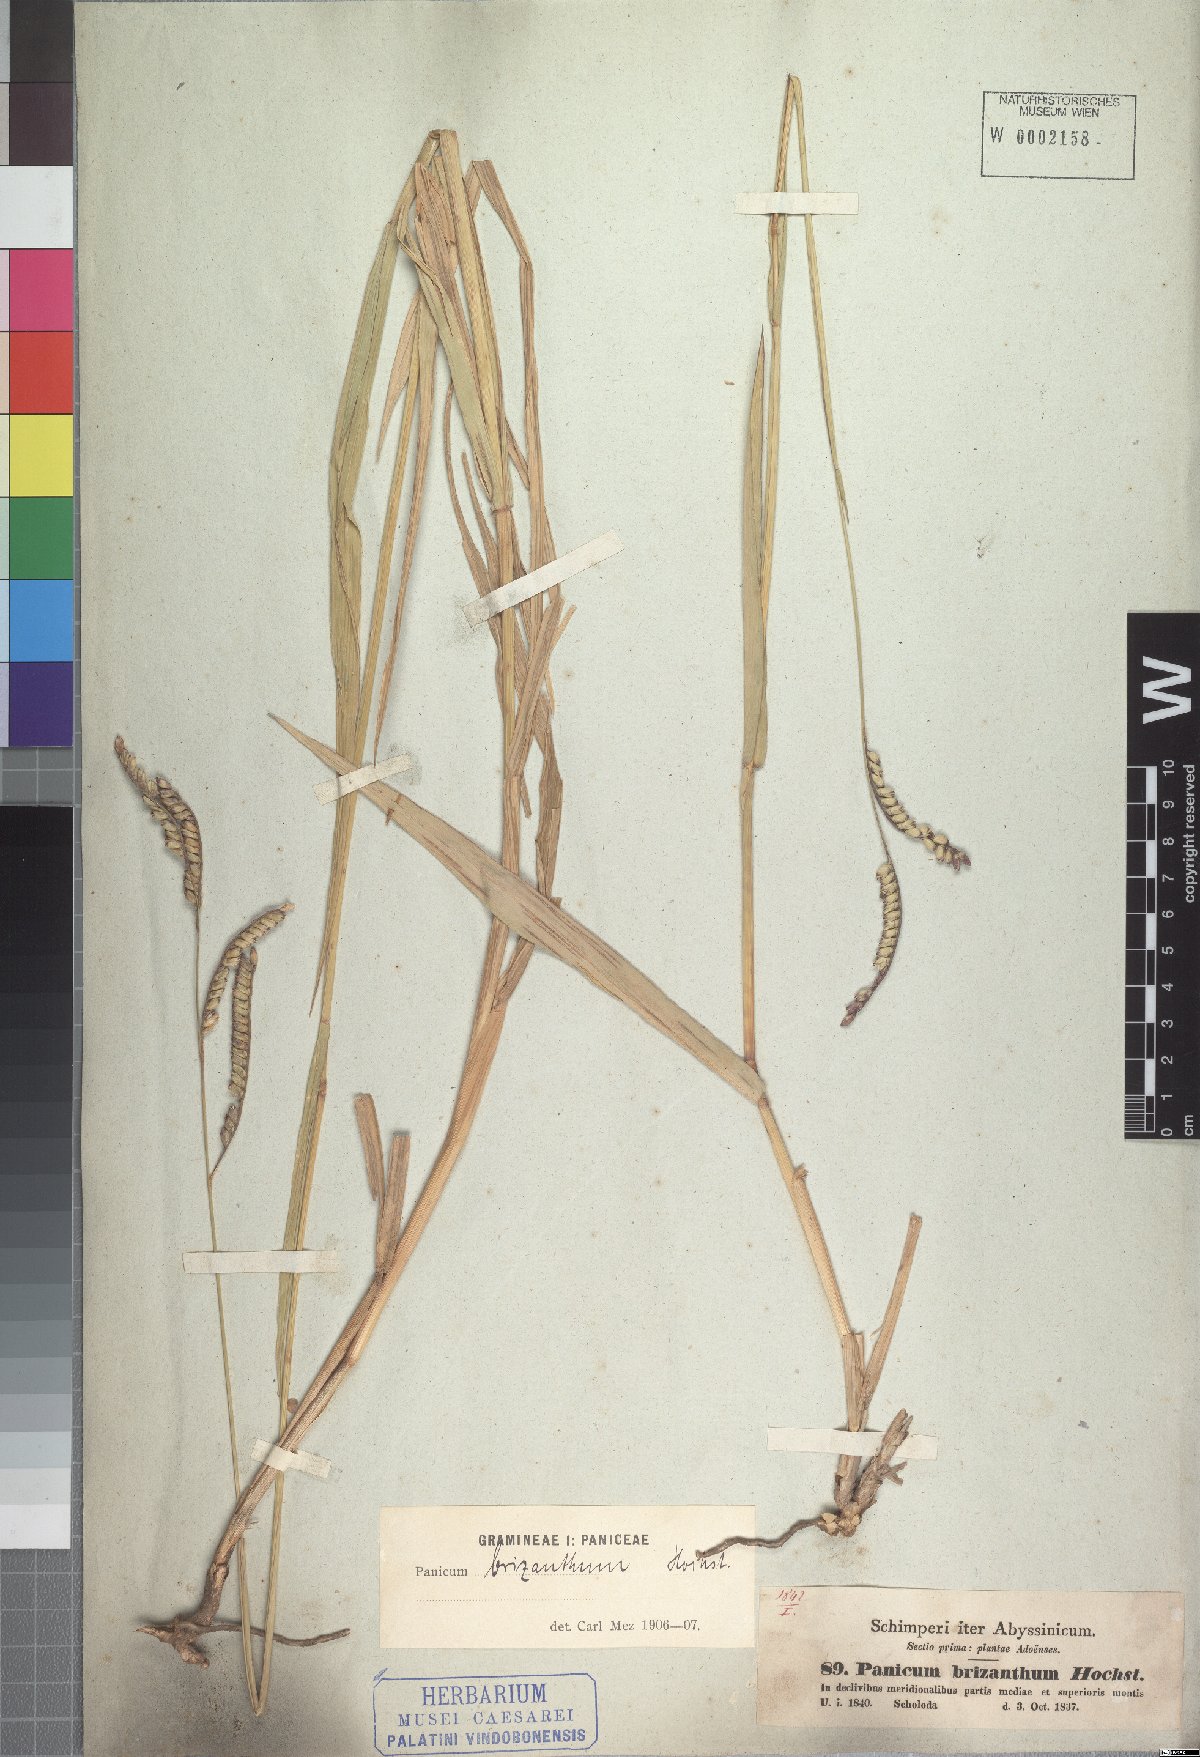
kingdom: Plantae
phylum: Tracheophyta
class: Liliopsida
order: Poales
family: Poaceae
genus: Urochloa
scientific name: Urochloa brizantha
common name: Palisade signalgrass
